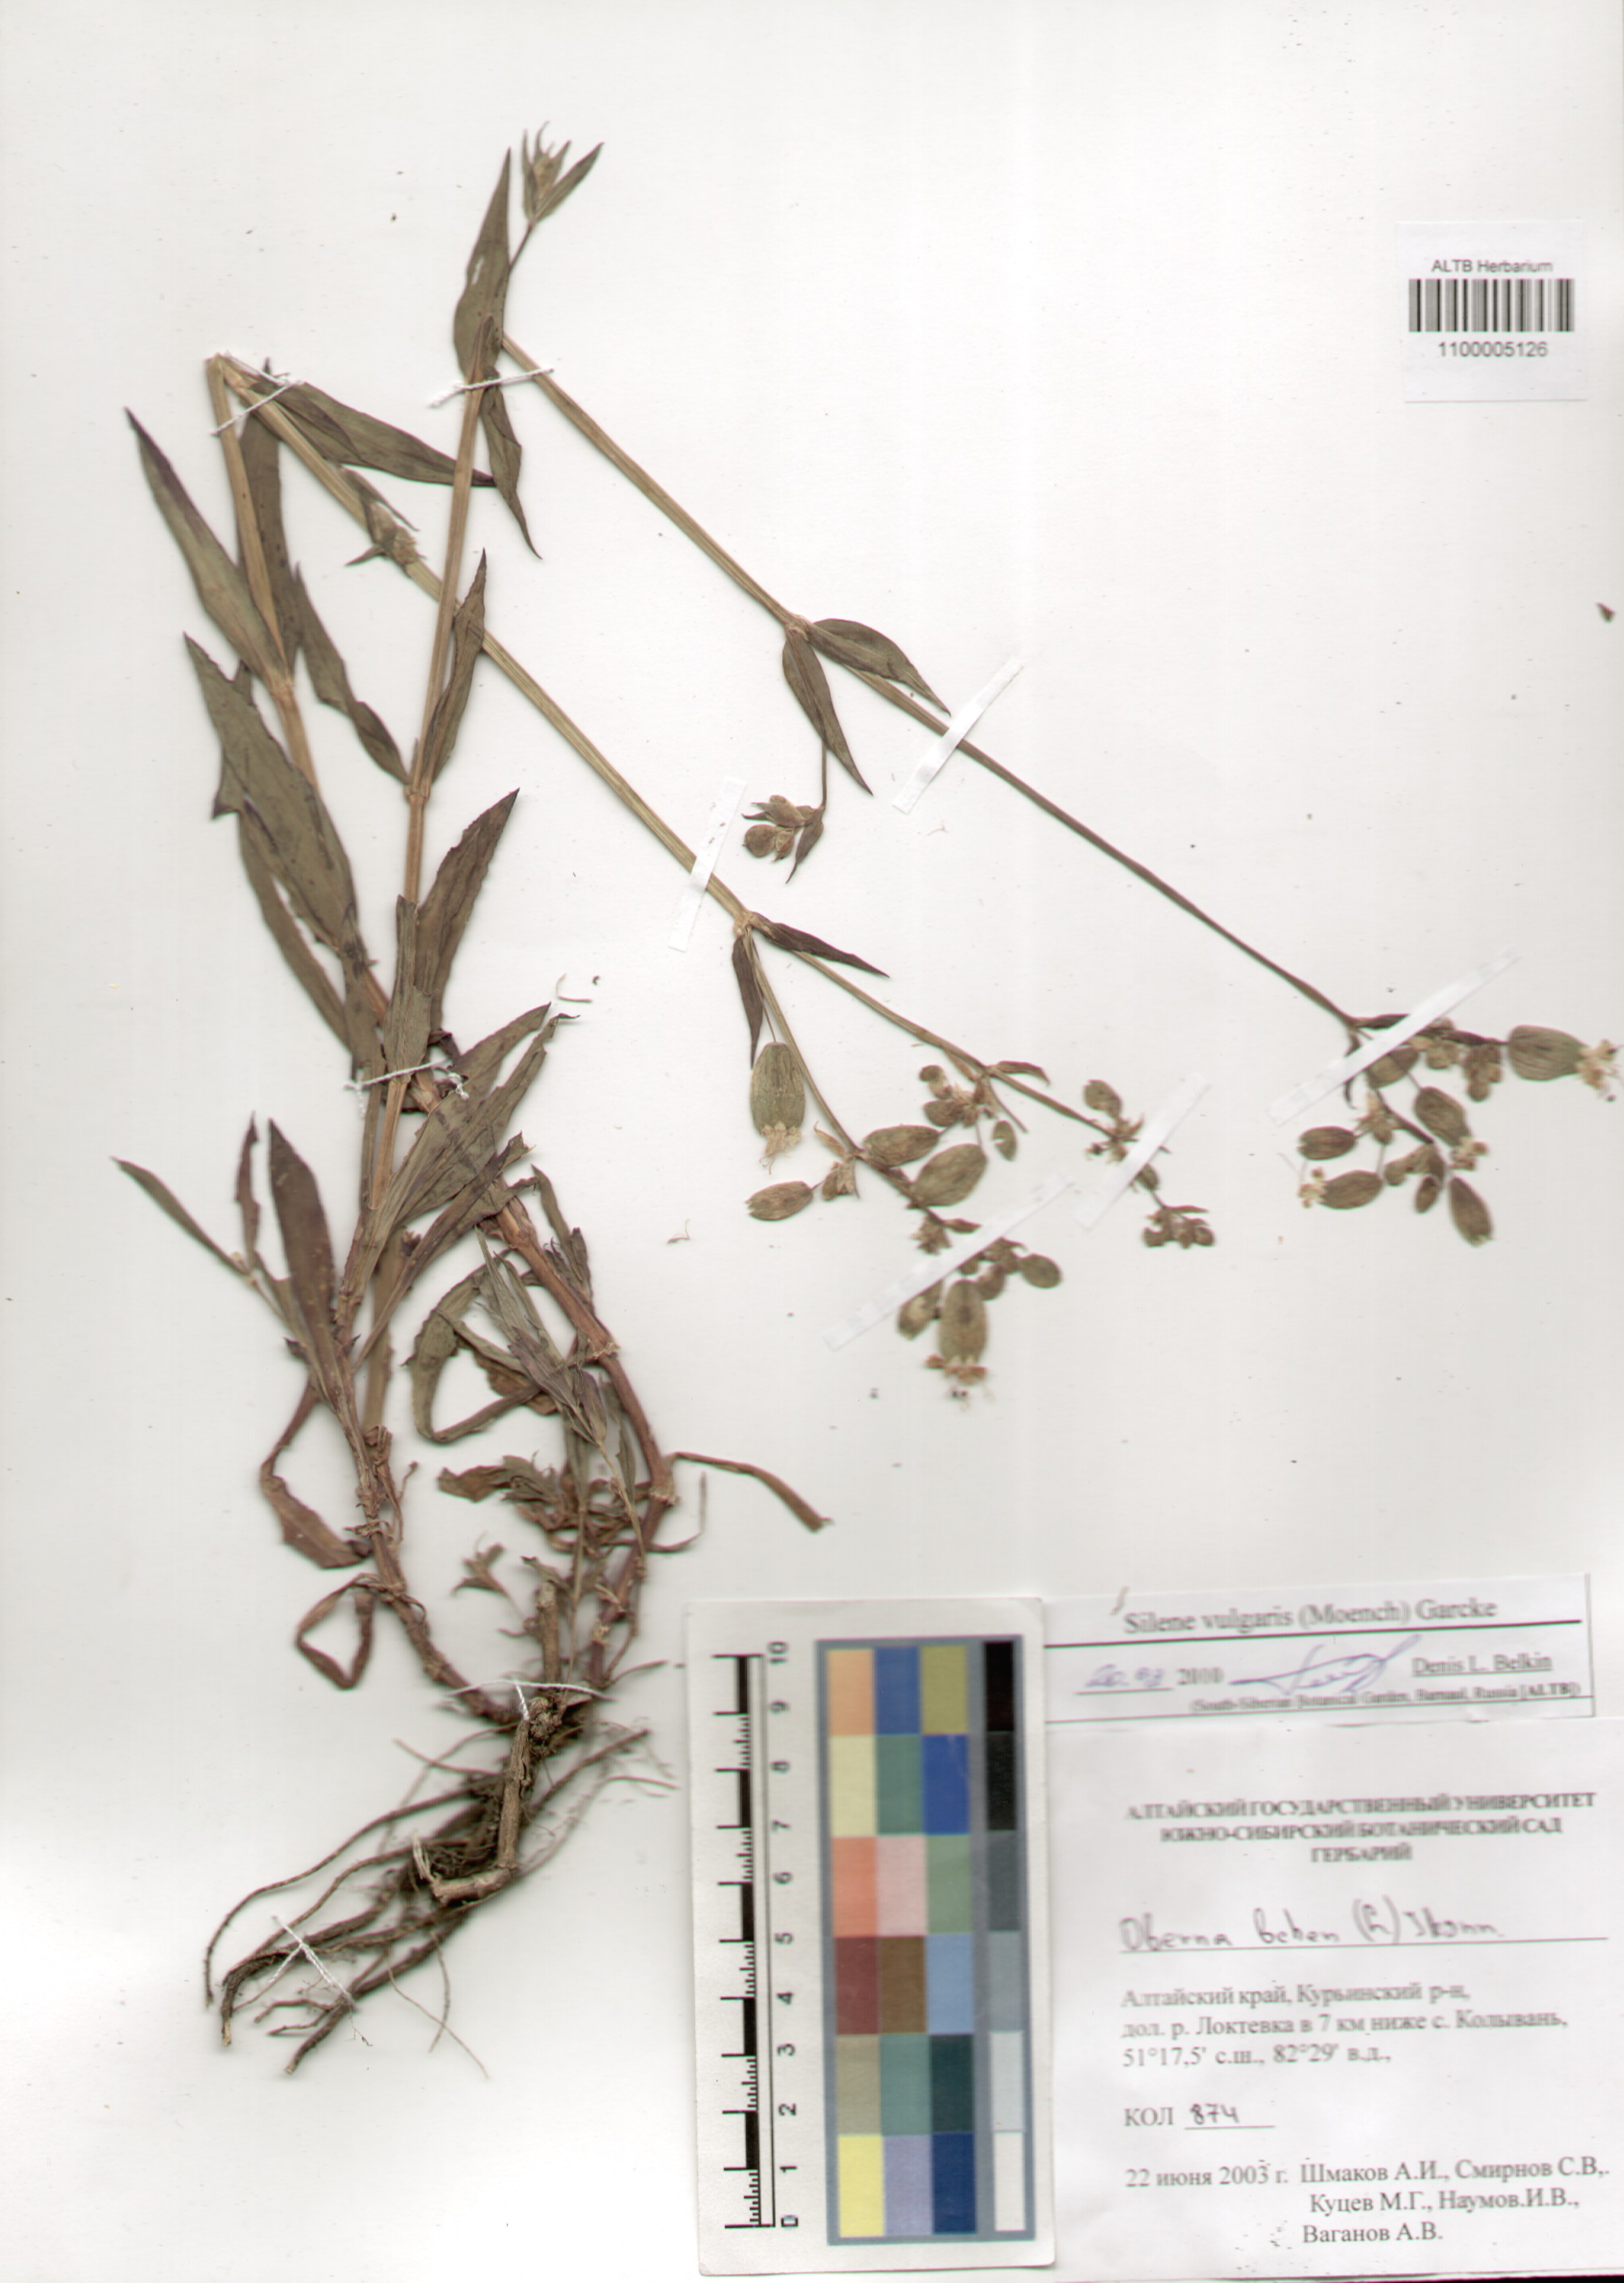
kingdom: Plantae
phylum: Tracheophyta
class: Magnoliopsida
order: Caryophyllales
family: Caryophyllaceae
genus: Silene
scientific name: Silene vulgaris
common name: Bladder campion
